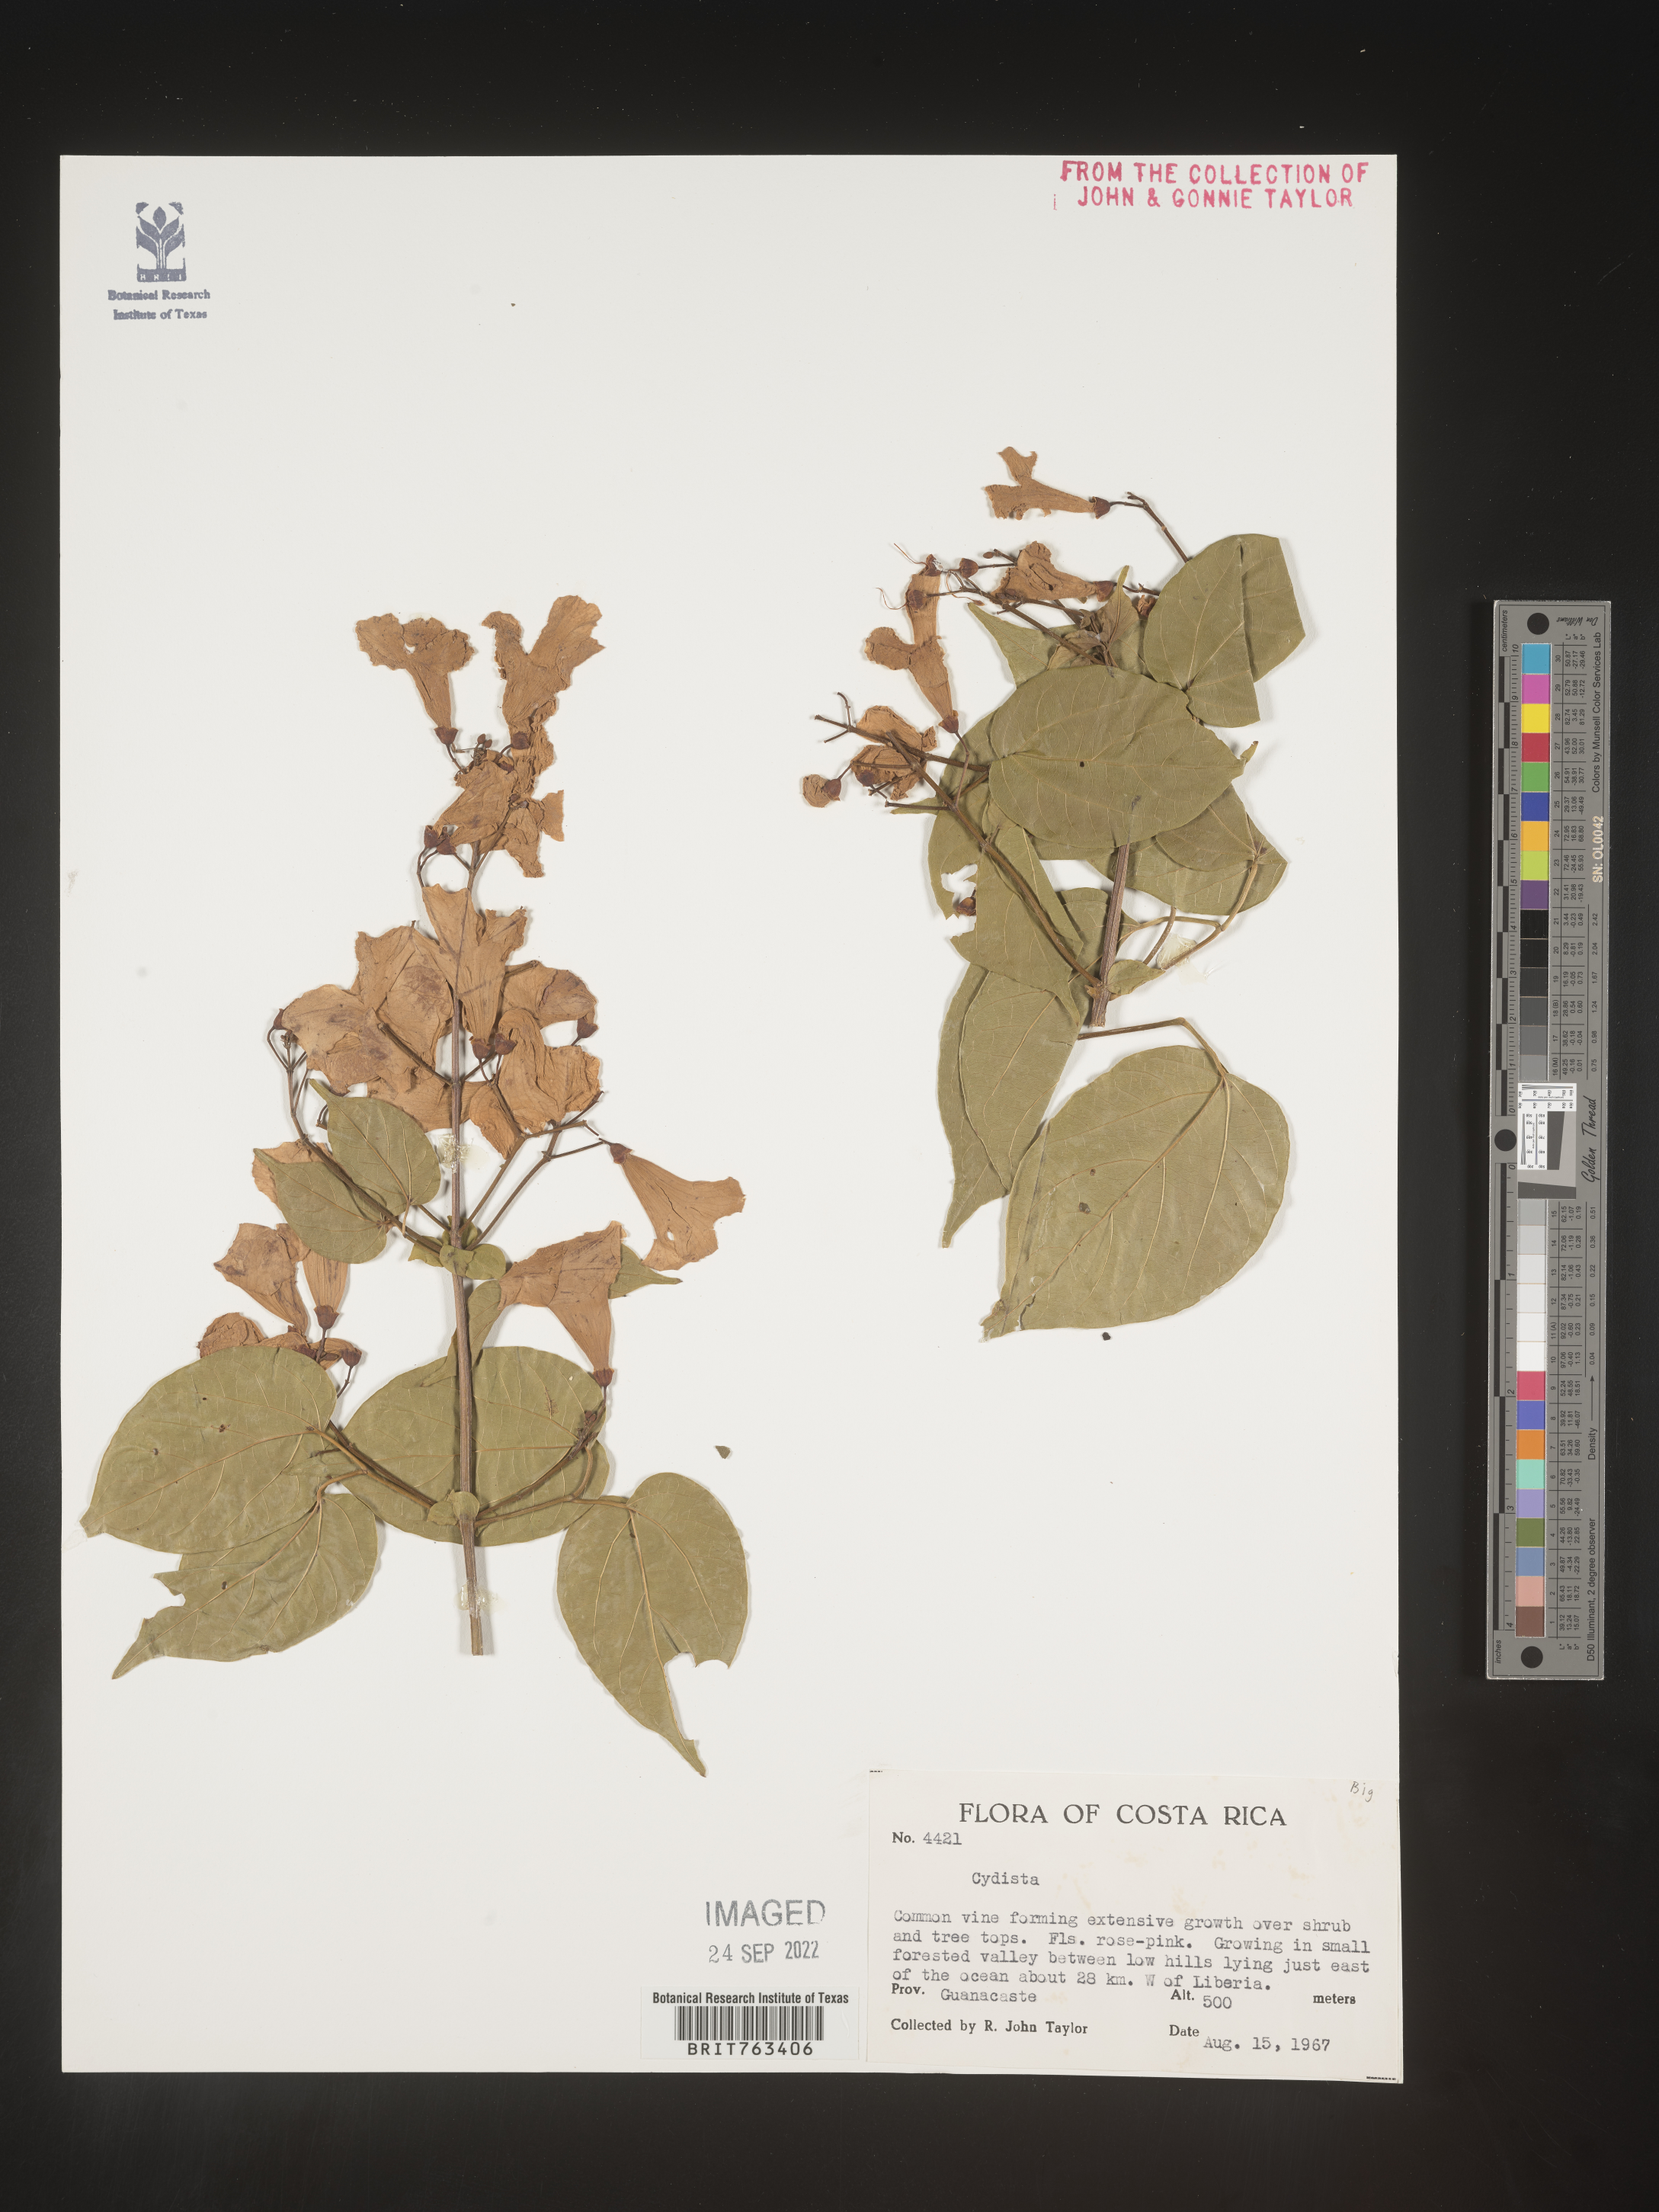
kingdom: Plantae
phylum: Tracheophyta
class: Magnoliopsida
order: Lamiales
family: Bignoniaceae
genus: Bignonia
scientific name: Bignonia
